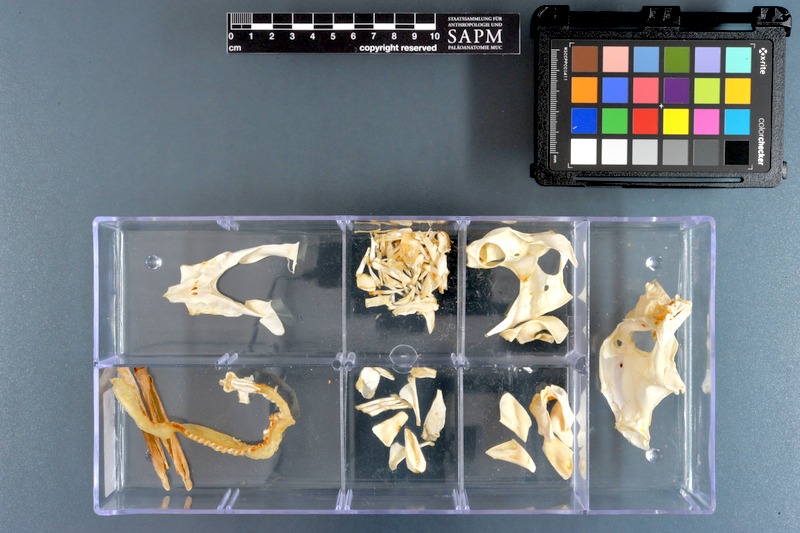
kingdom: Animalia
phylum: Chordata
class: Holocephali
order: Chimaeriformes
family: Callorhinchidae
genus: Callorhinchus
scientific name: Callorhinchus capensis
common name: Cape elephantfish
